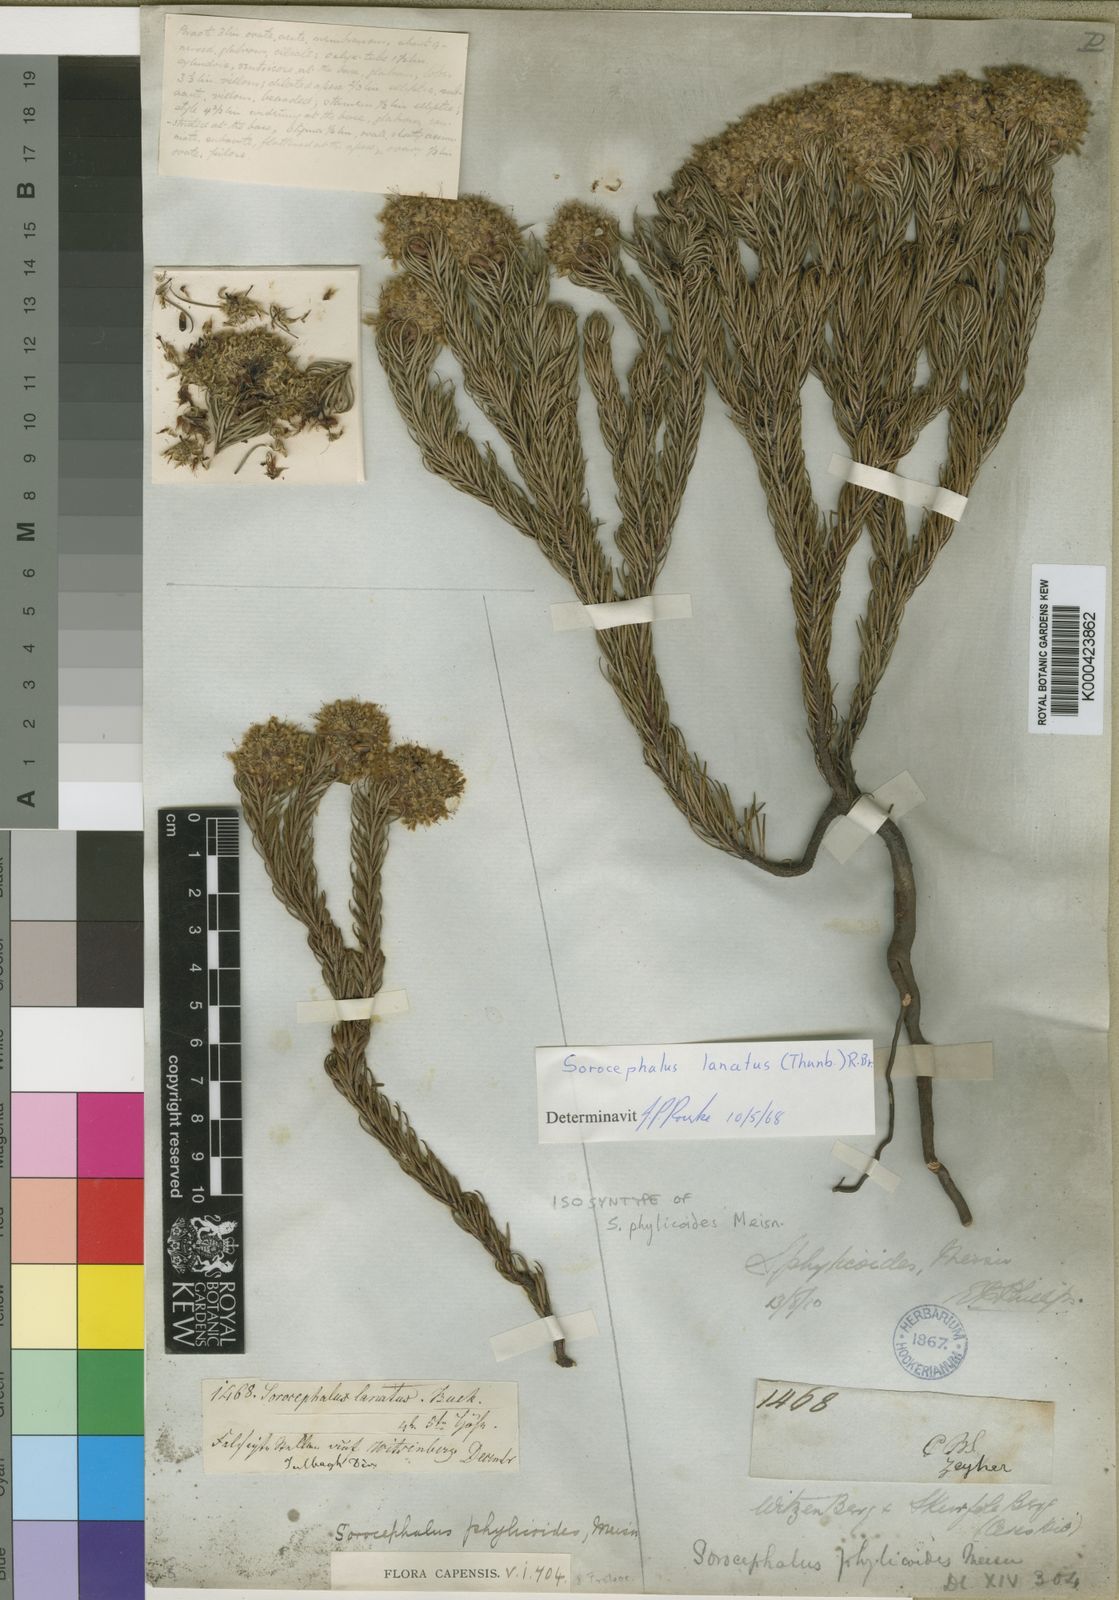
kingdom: Plantae
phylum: Tracheophyta
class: Magnoliopsida
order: Proteales
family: Proteaceae
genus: Sorocephalus
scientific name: Sorocephalus lanatus
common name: Common clusterhead
